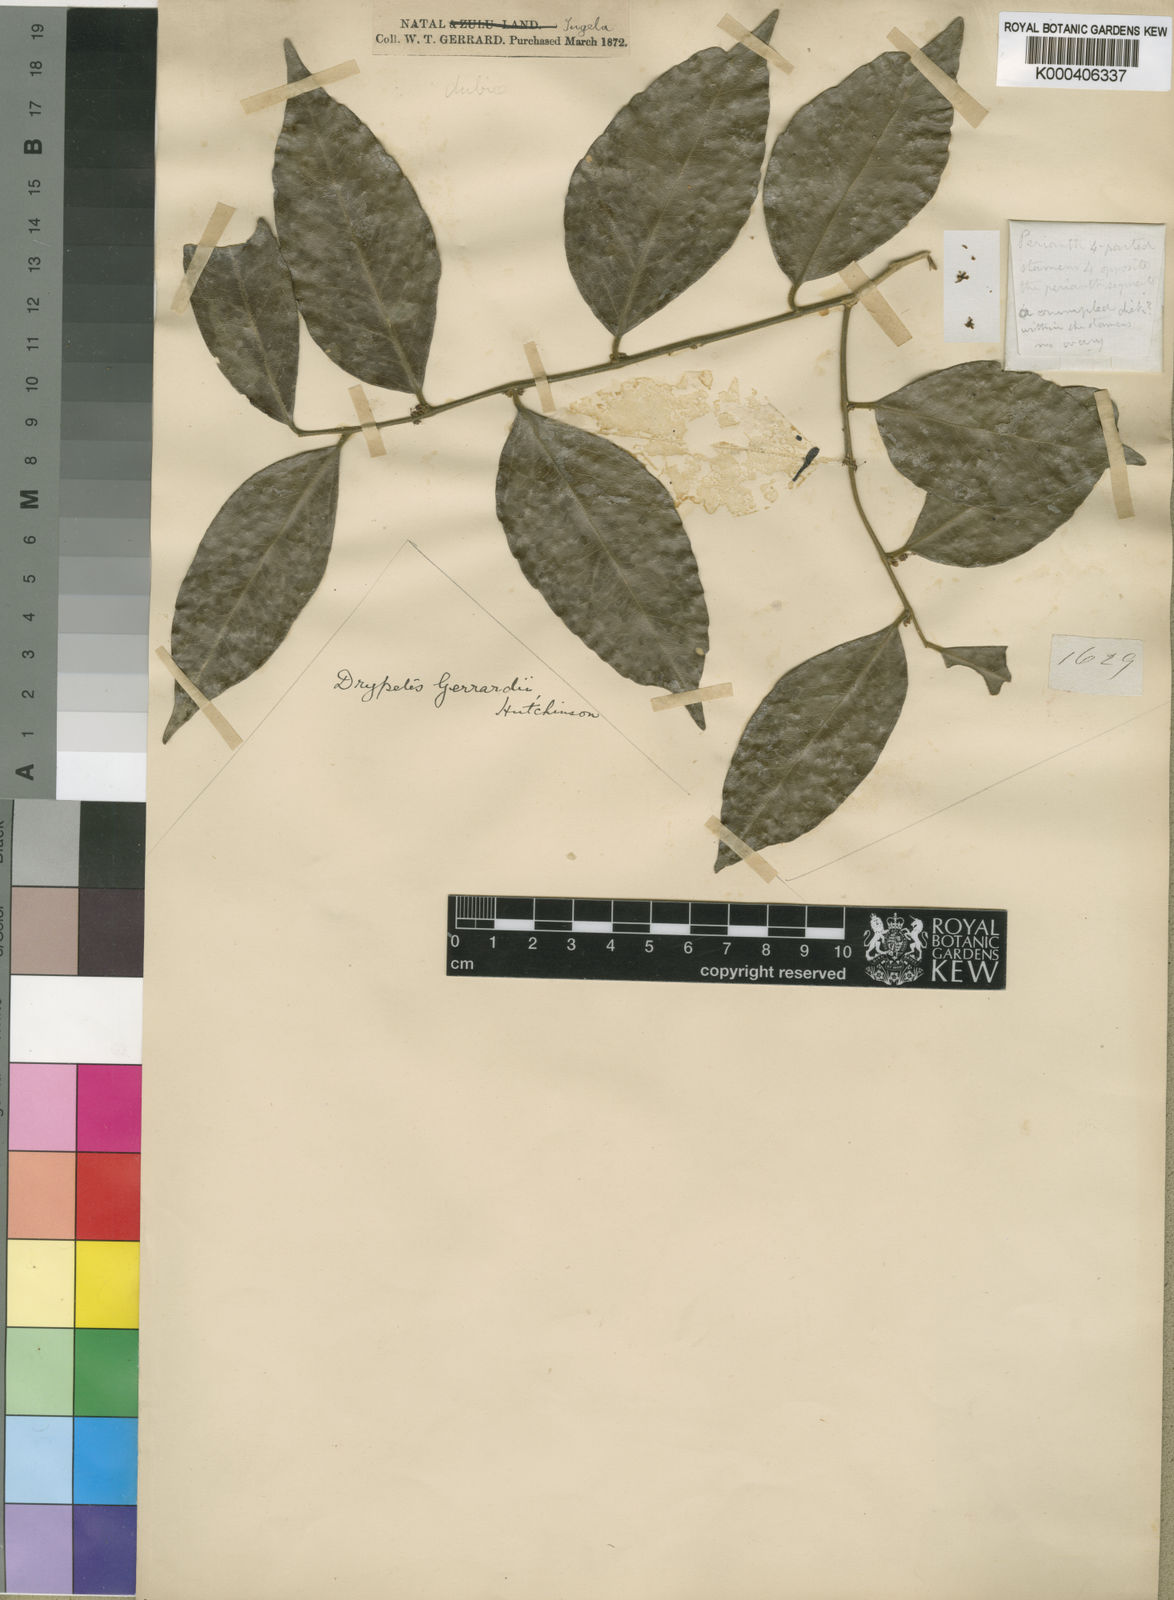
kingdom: Plantae
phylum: Tracheophyta
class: Magnoliopsida
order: Malpighiales
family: Putranjivaceae
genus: Drypetes
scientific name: Drypetes gerrardii
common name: Forest ironplum
